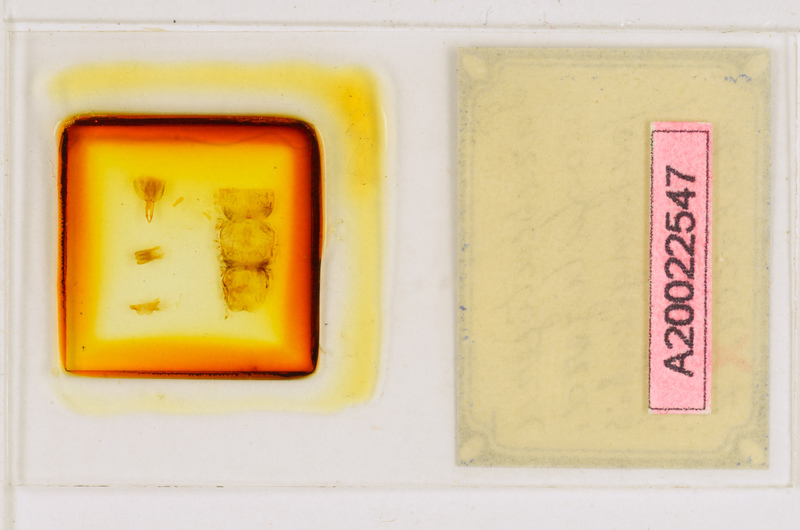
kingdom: Animalia
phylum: Arthropoda
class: Chilopoda
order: Scutigeromorpha
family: Scutigeridae
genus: Parascutigera
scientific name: Parascutigera noduligera
